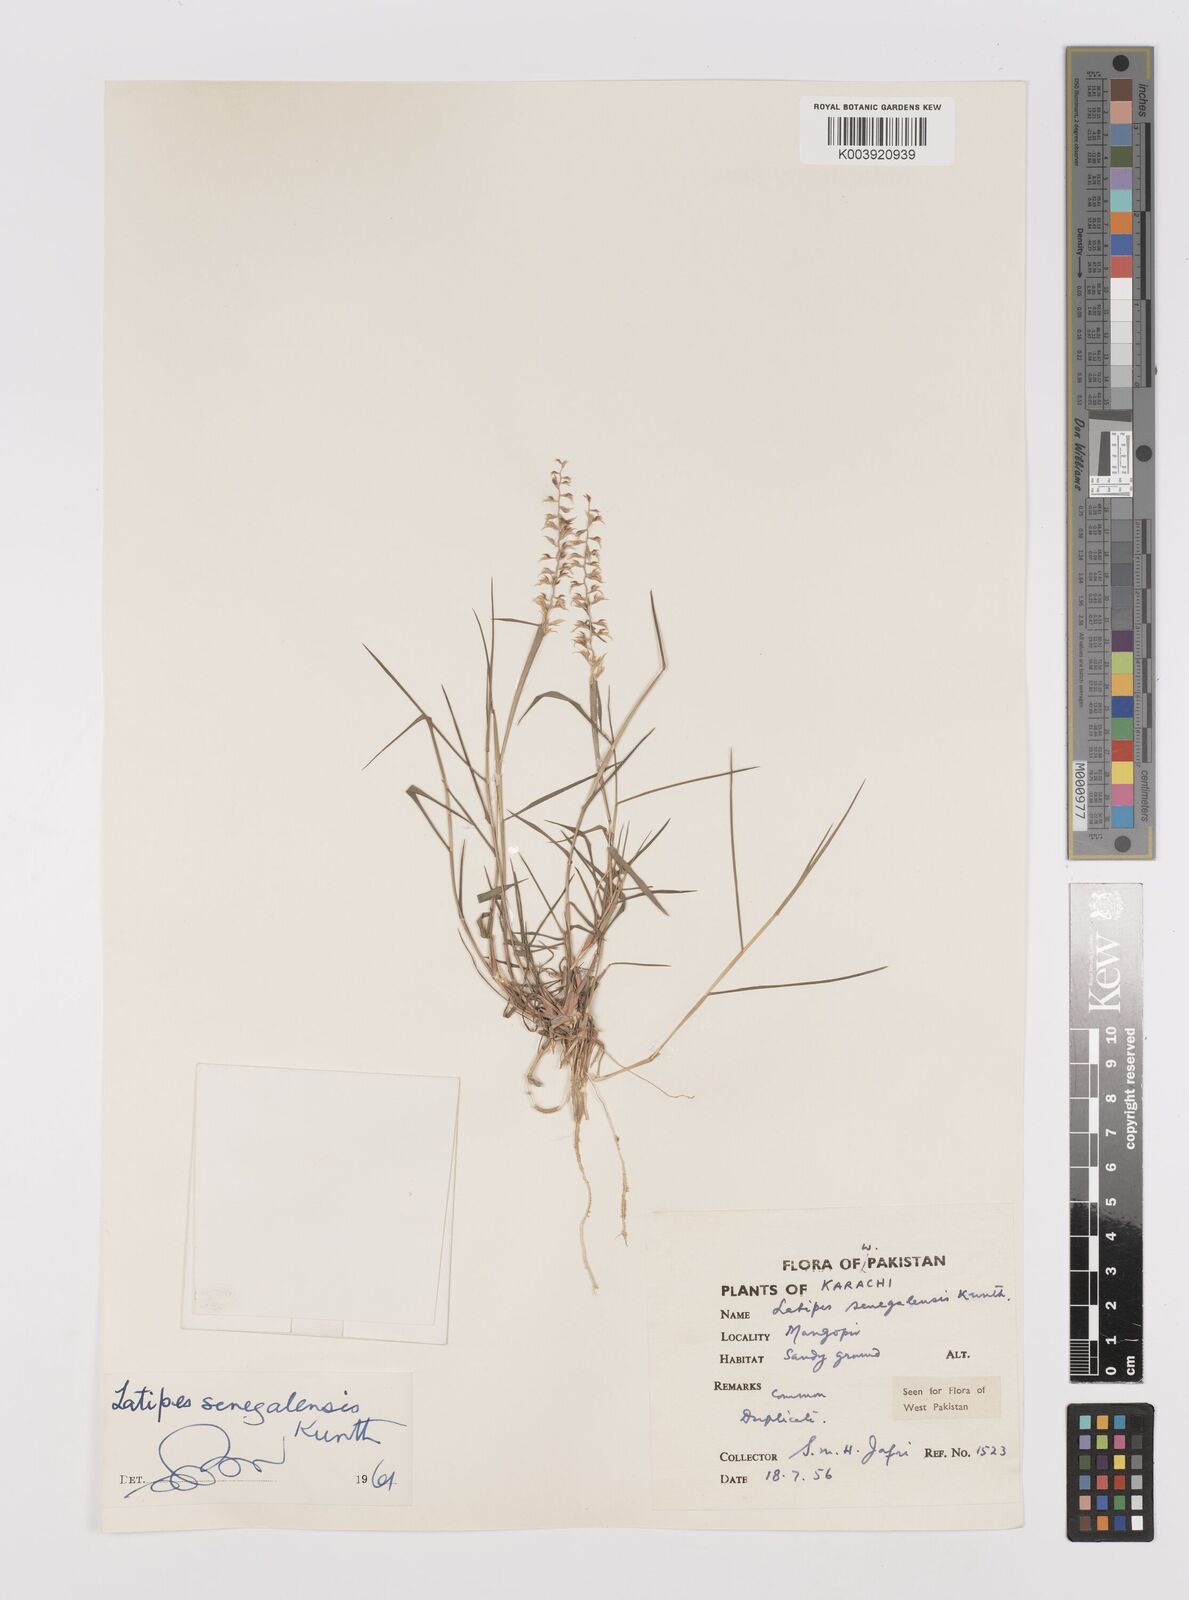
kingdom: Plantae
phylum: Tracheophyta
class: Liliopsida
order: Poales
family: Poaceae
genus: Leptothrium
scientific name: Leptothrium senegalense
